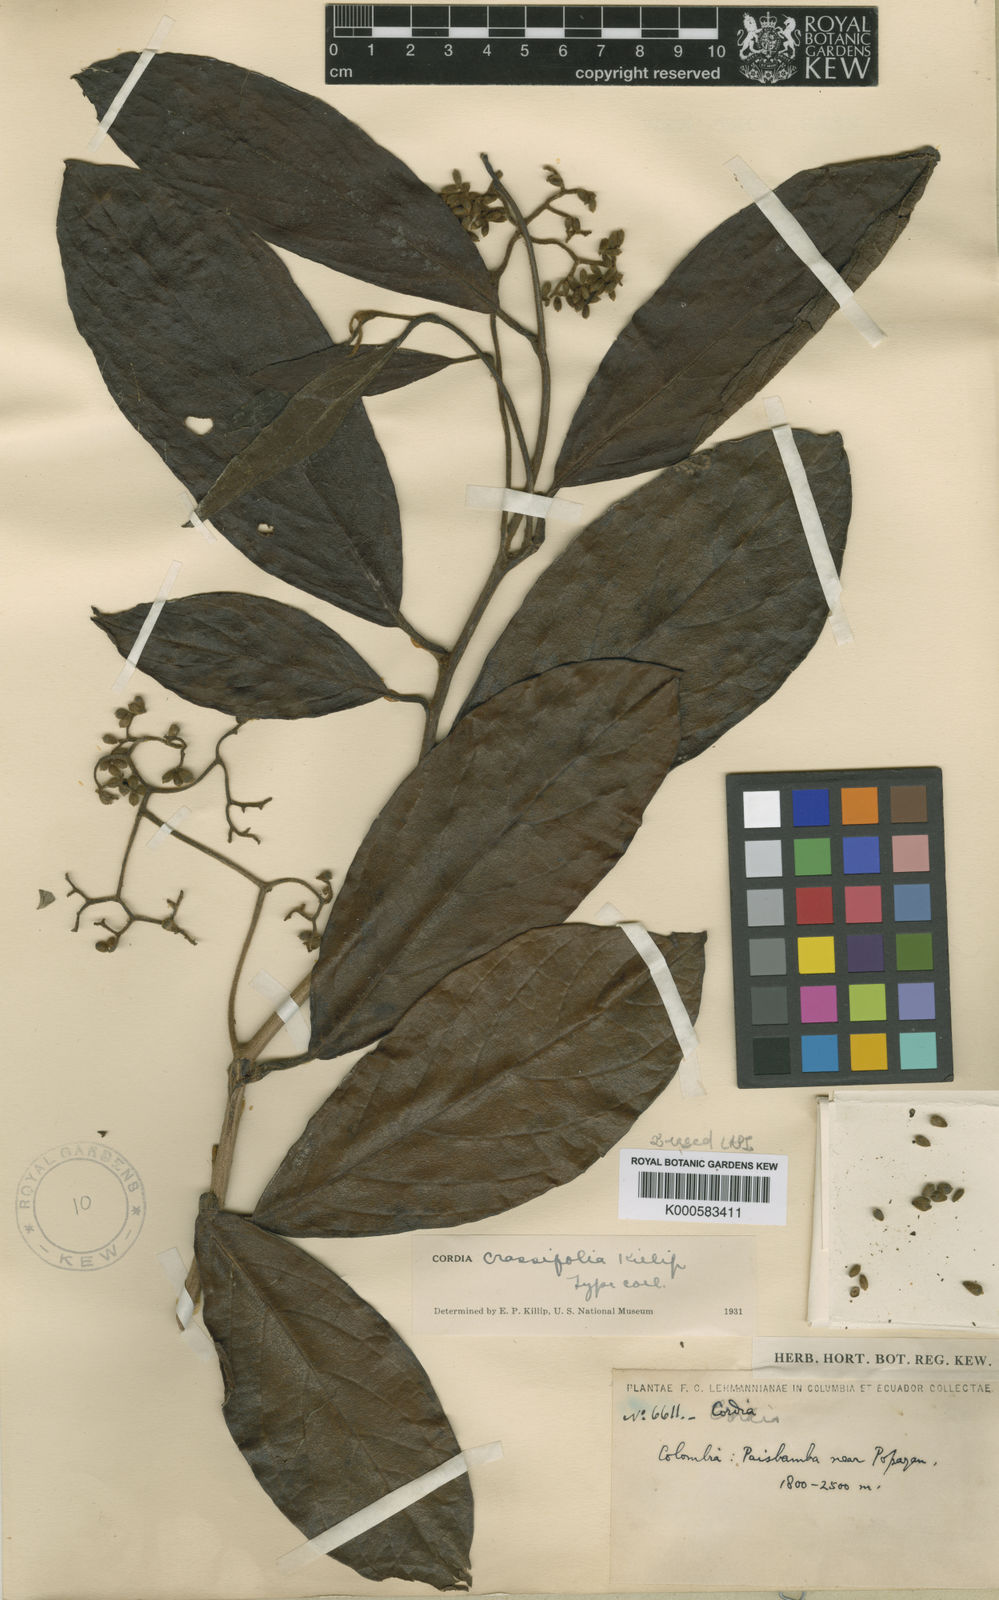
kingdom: Plantae
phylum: Tracheophyta
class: Magnoliopsida
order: Boraginales
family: Cordiaceae
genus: Cordia
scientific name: Cordia crassifolia
